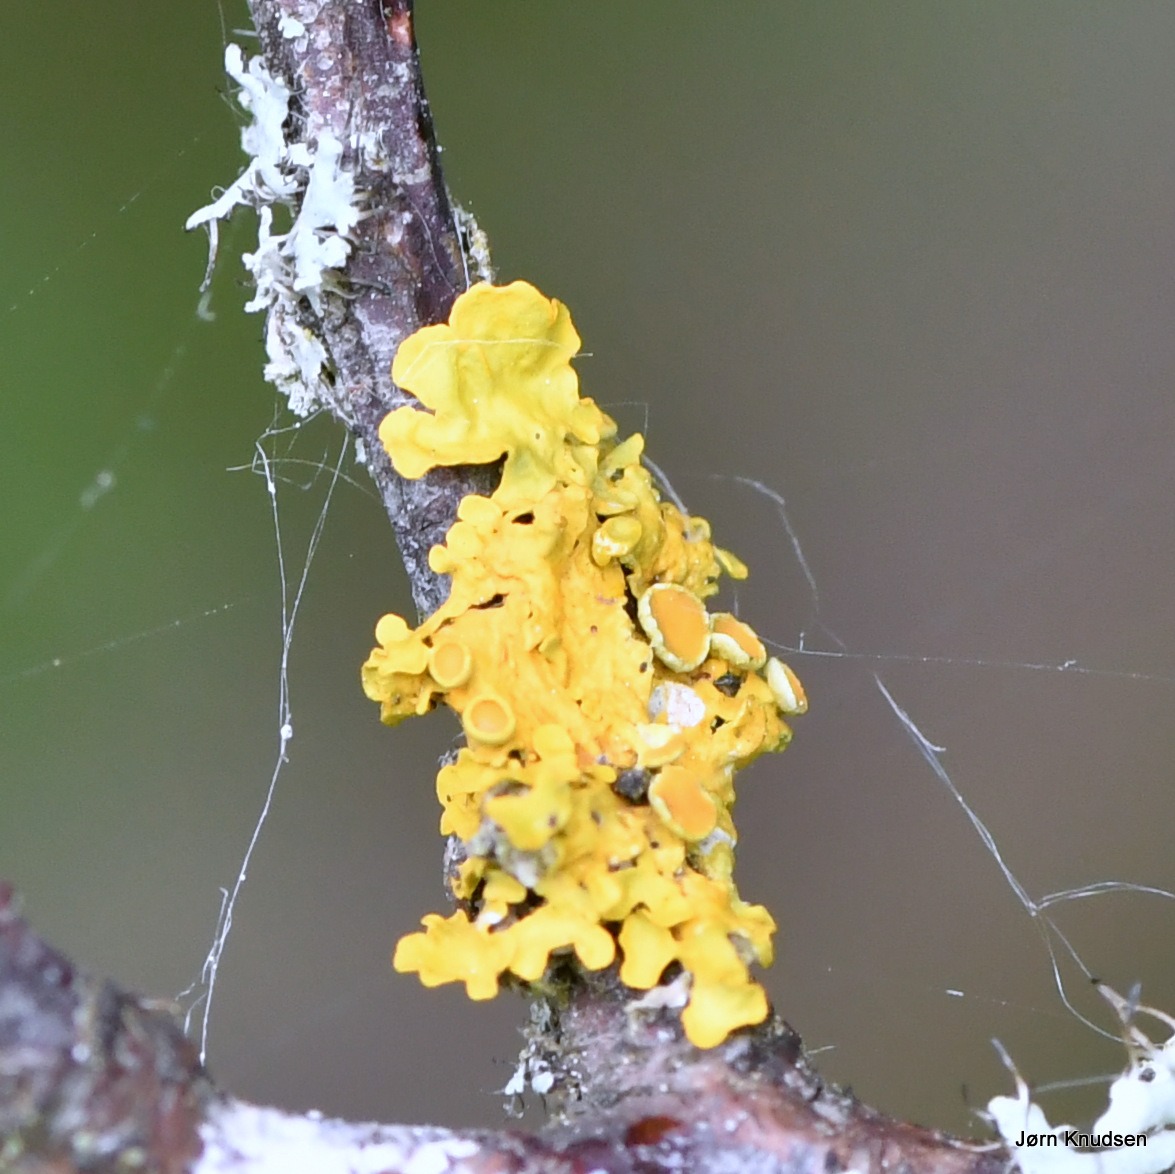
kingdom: Fungi
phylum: Ascomycota
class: Lecanoromycetes
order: Teloschistales
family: Teloschistaceae
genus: Xanthoria
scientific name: Xanthoria parietina
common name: Almindelig væggelav
